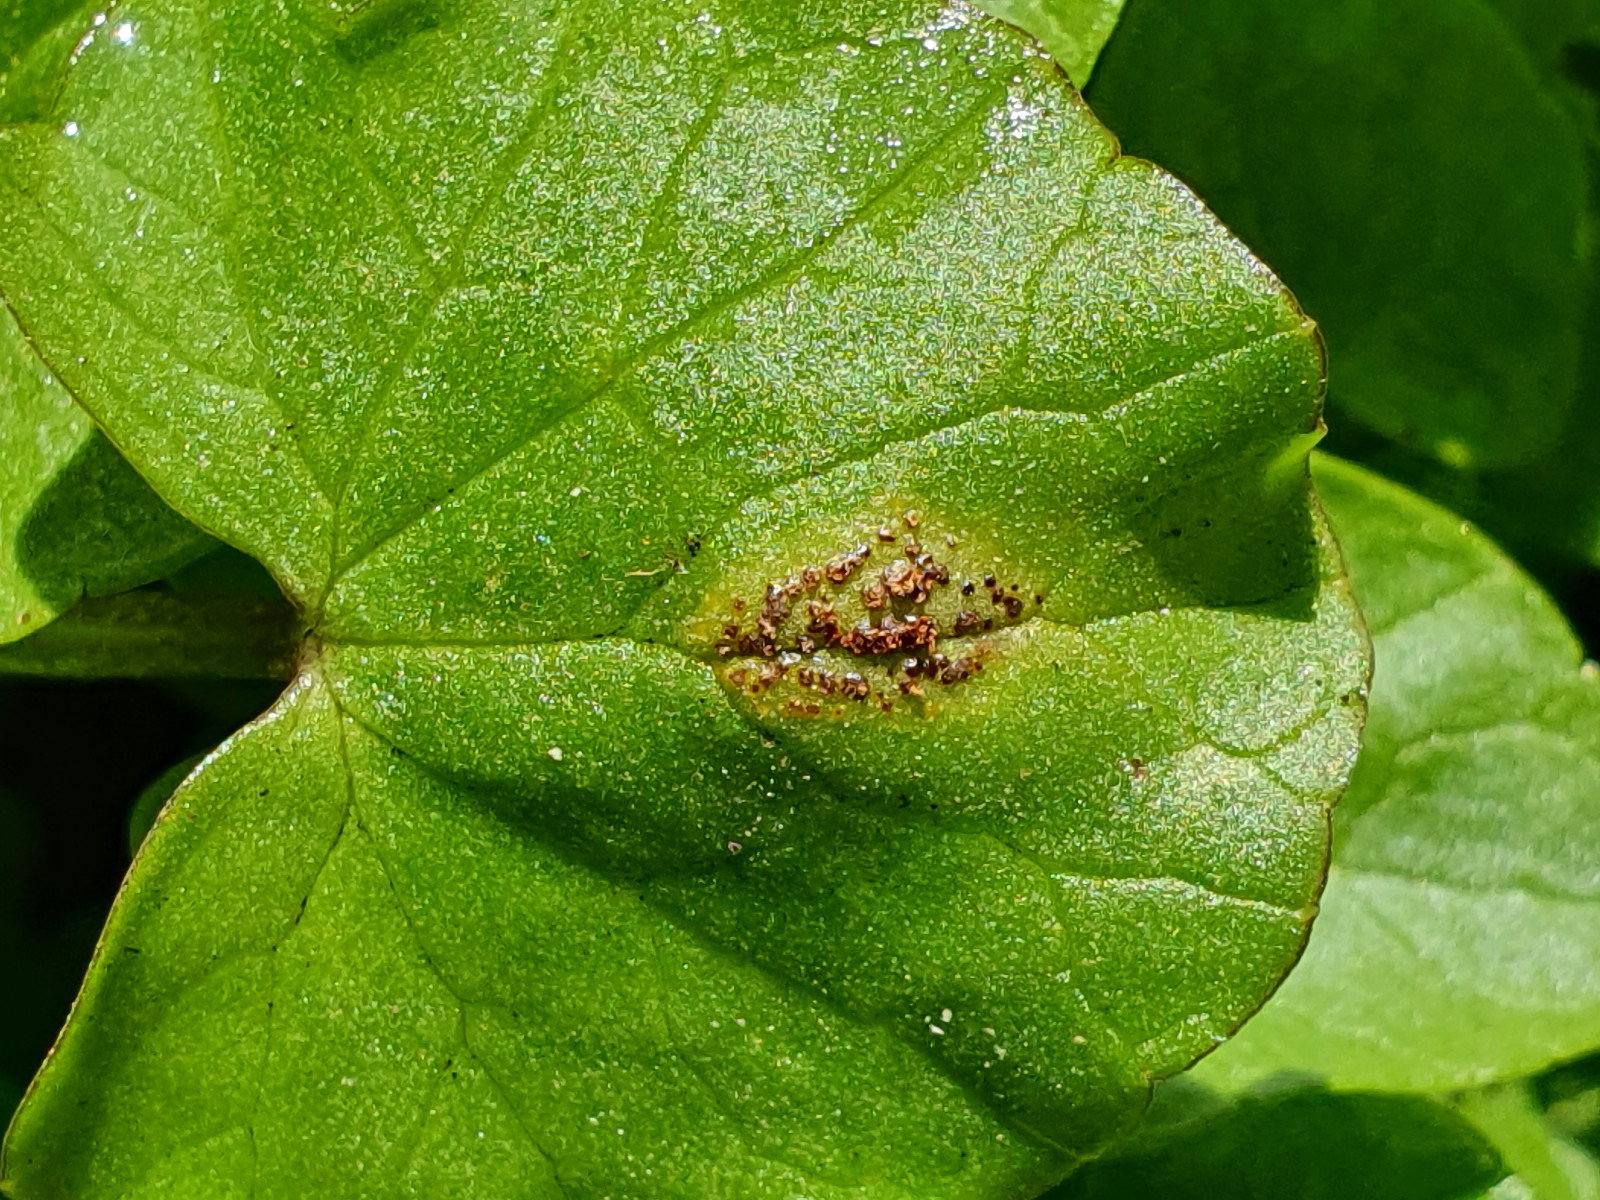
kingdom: Fungi
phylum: Basidiomycota
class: Pucciniomycetes
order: Pucciniales
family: Pucciniaceae
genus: Uromyces
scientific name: Uromyces ficariae
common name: vorterod-encellerust
